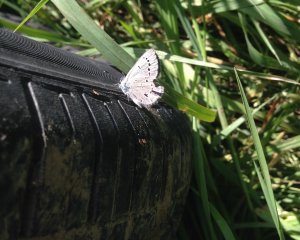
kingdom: Animalia
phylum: Arthropoda
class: Insecta
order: Lepidoptera
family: Lycaenidae
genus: Glaucopsyche
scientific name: Glaucopsyche lygdamus
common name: Silvery Blue
